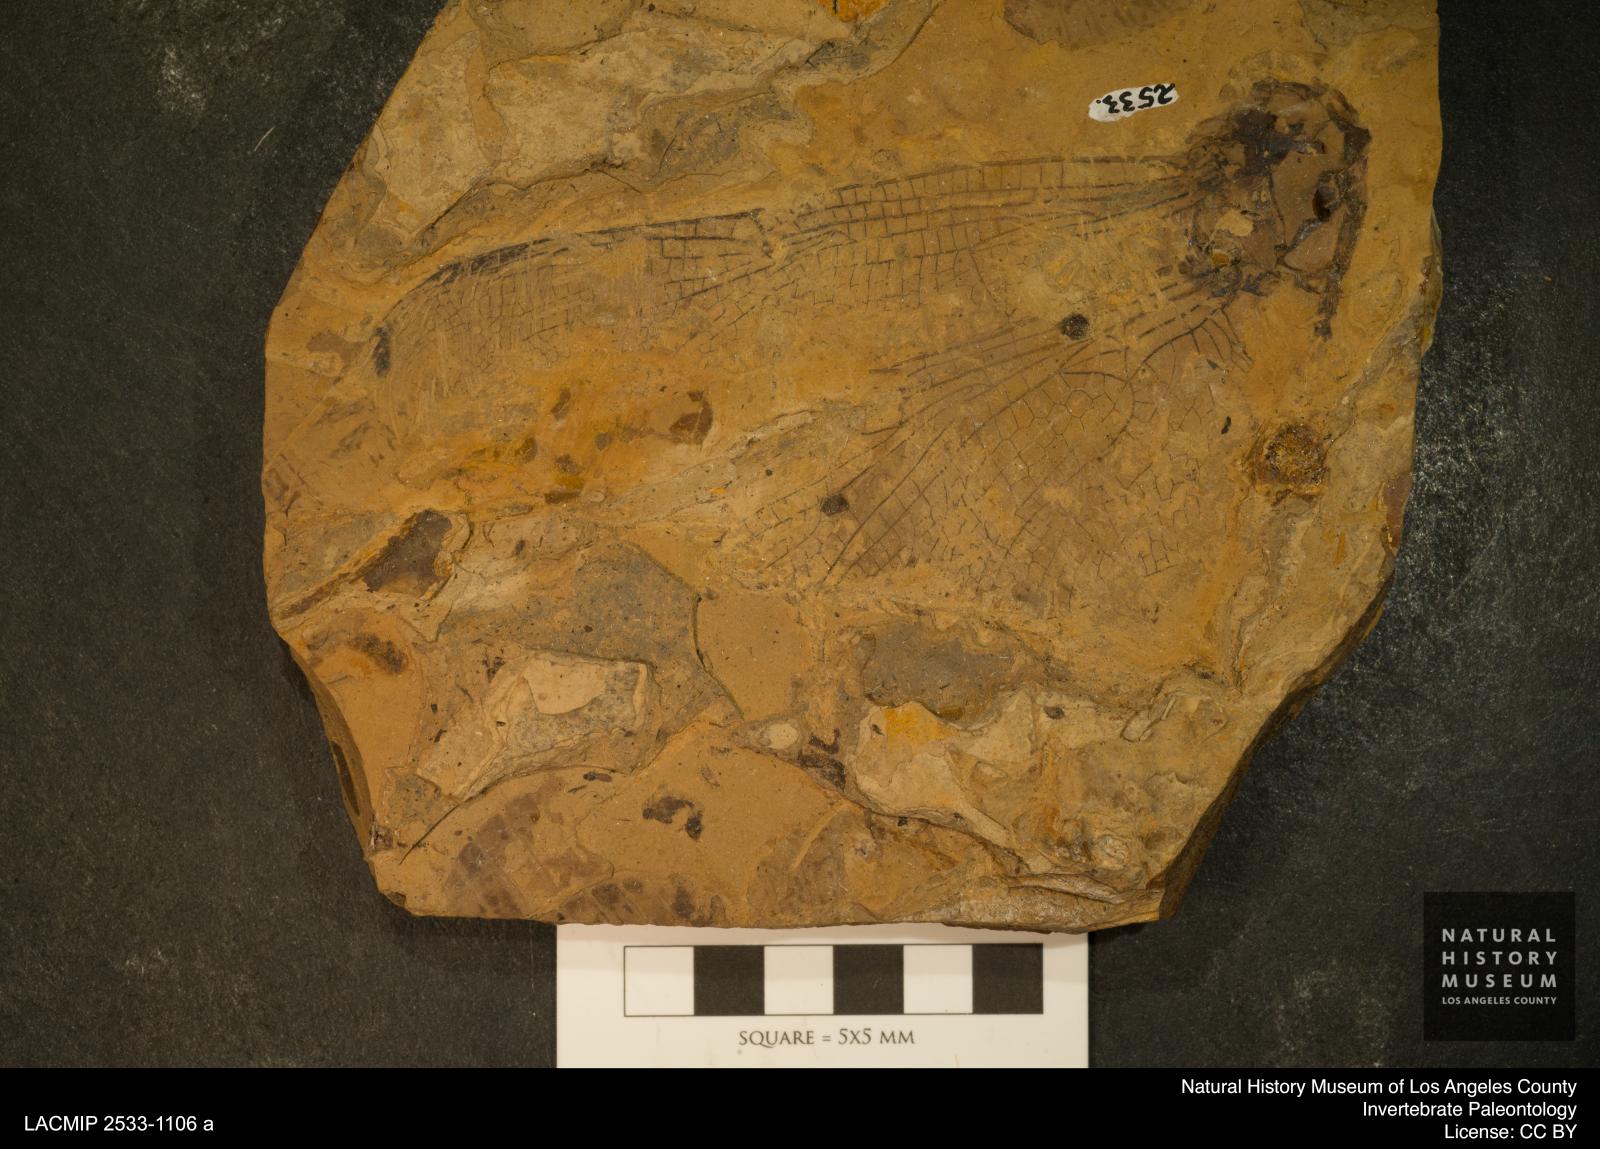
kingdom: Animalia
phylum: Arthropoda
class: Insecta
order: Odonata
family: Libellulidae
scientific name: Libellulidae
